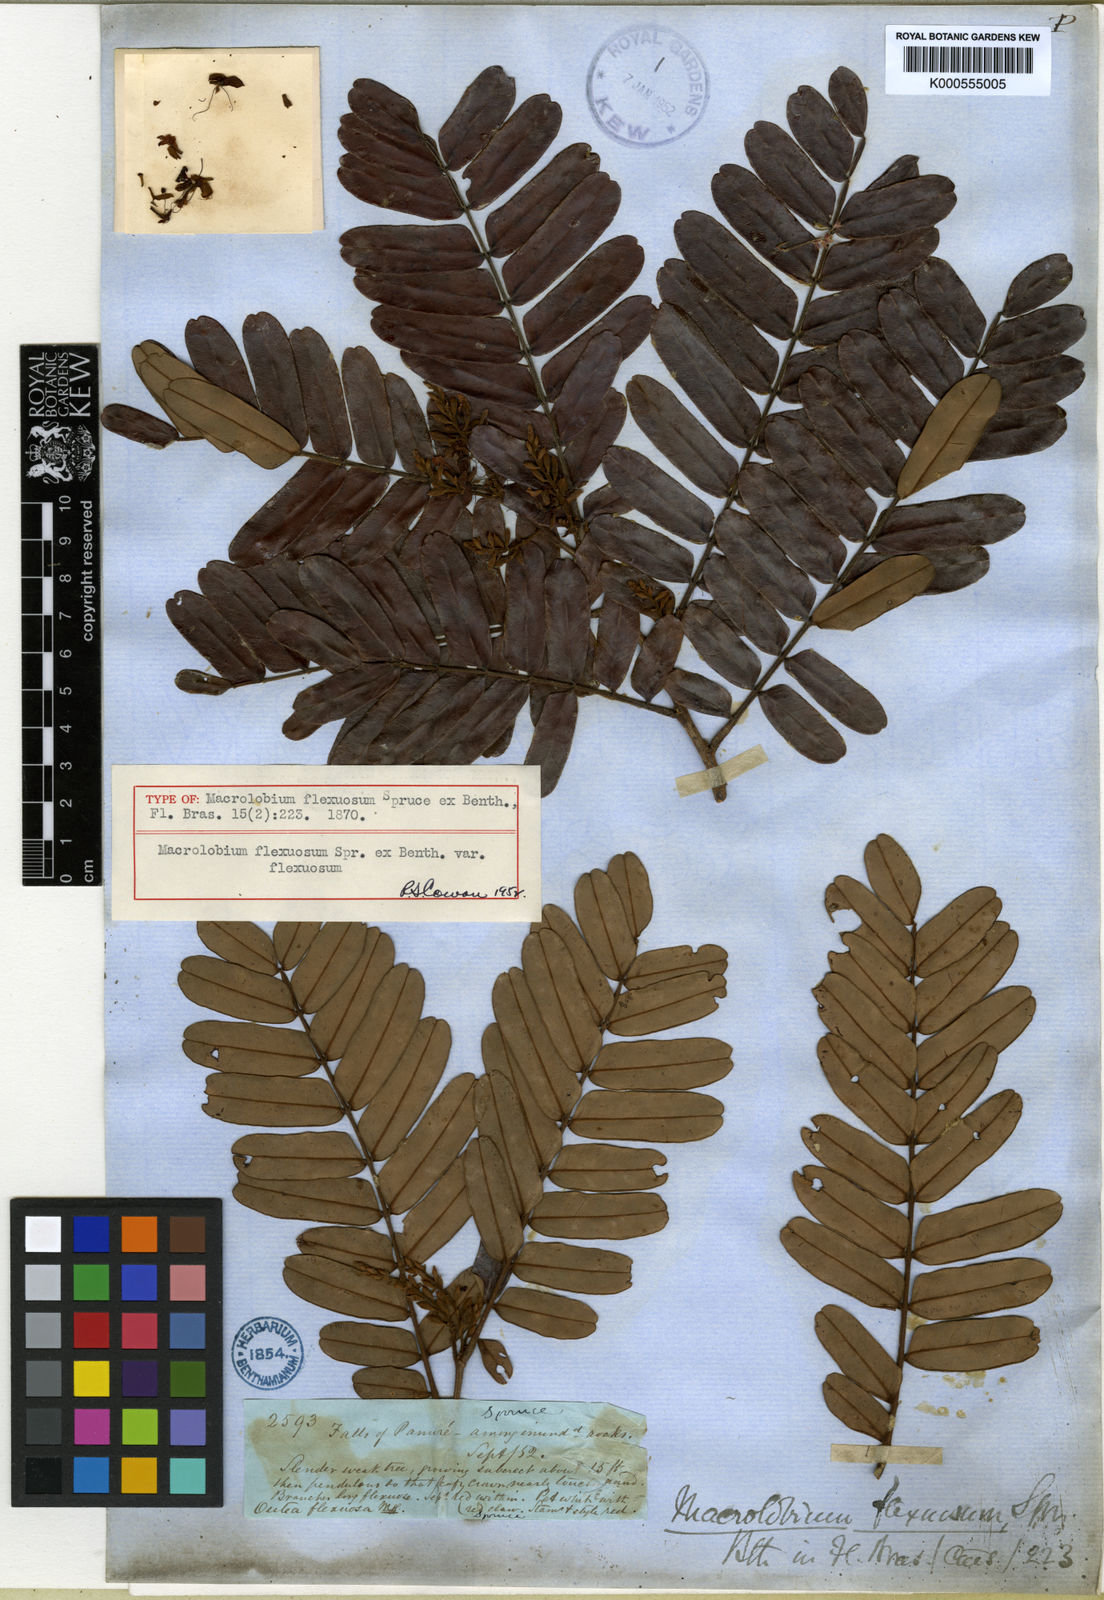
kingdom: Plantae
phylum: Tracheophyta
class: Magnoliopsida
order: Fabales
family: Fabaceae
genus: Macrolobium
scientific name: Macrolobium flexuosum
